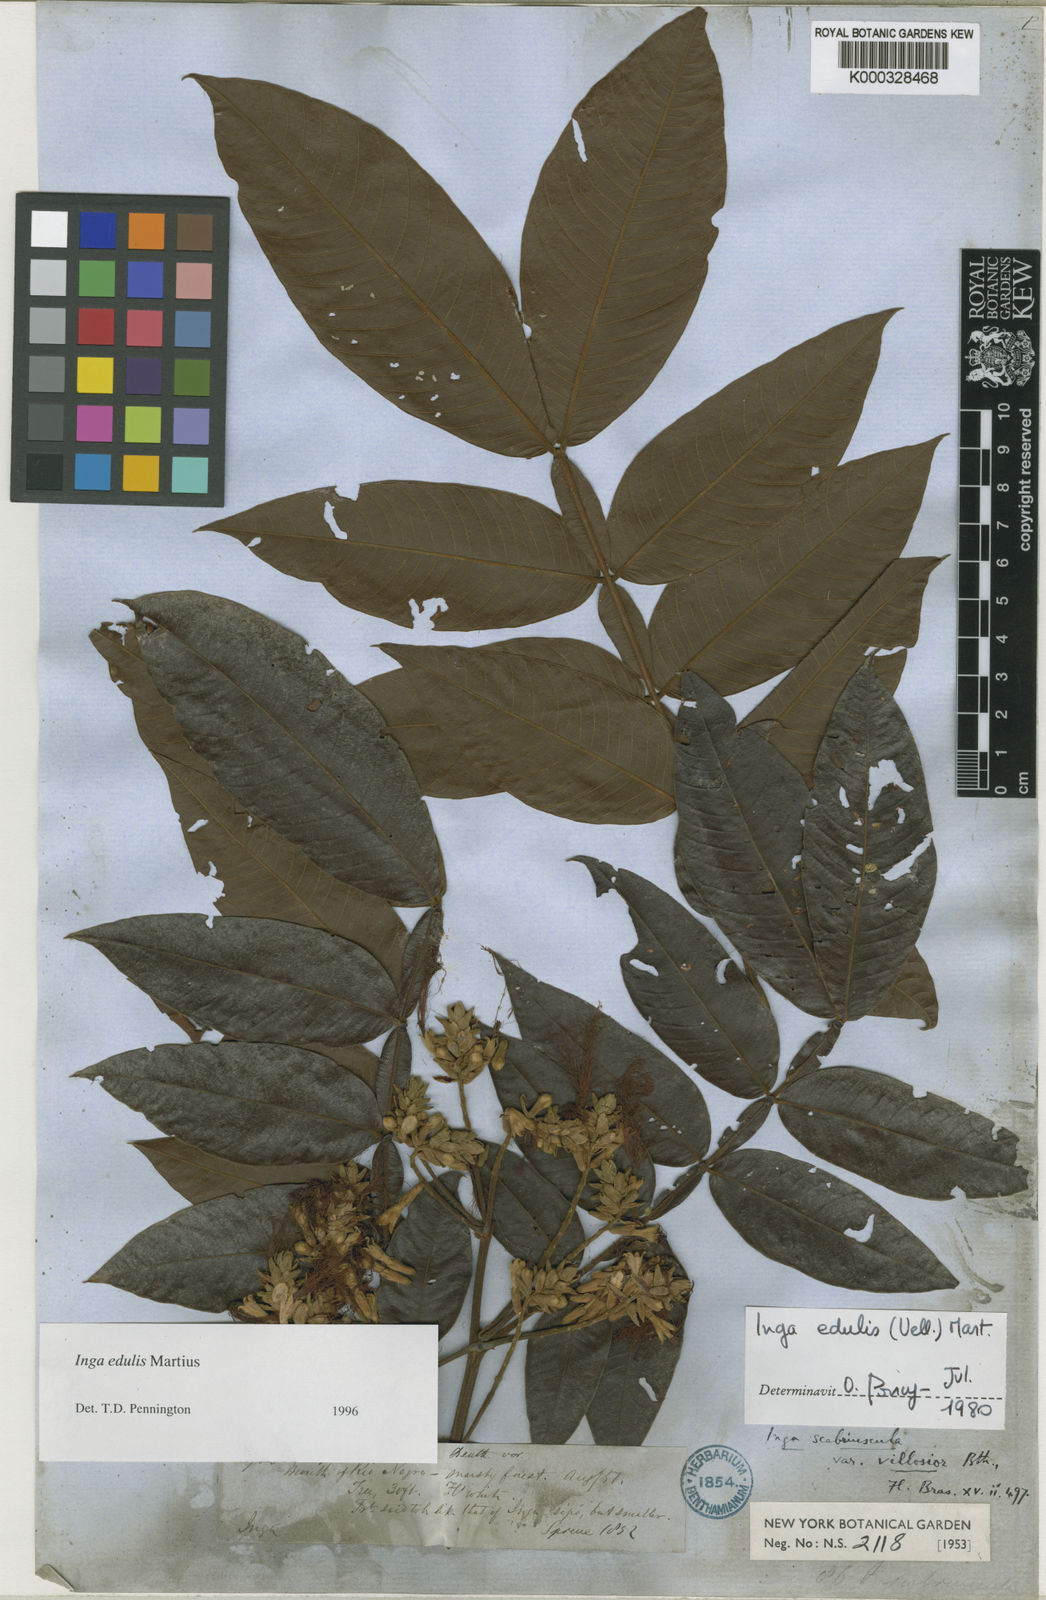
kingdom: Plantae
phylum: Tracheophyta
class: Magnoliopsida
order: Fabales
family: Fabaceae
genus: Inga
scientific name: Inga edulis
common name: Ice cream bean
